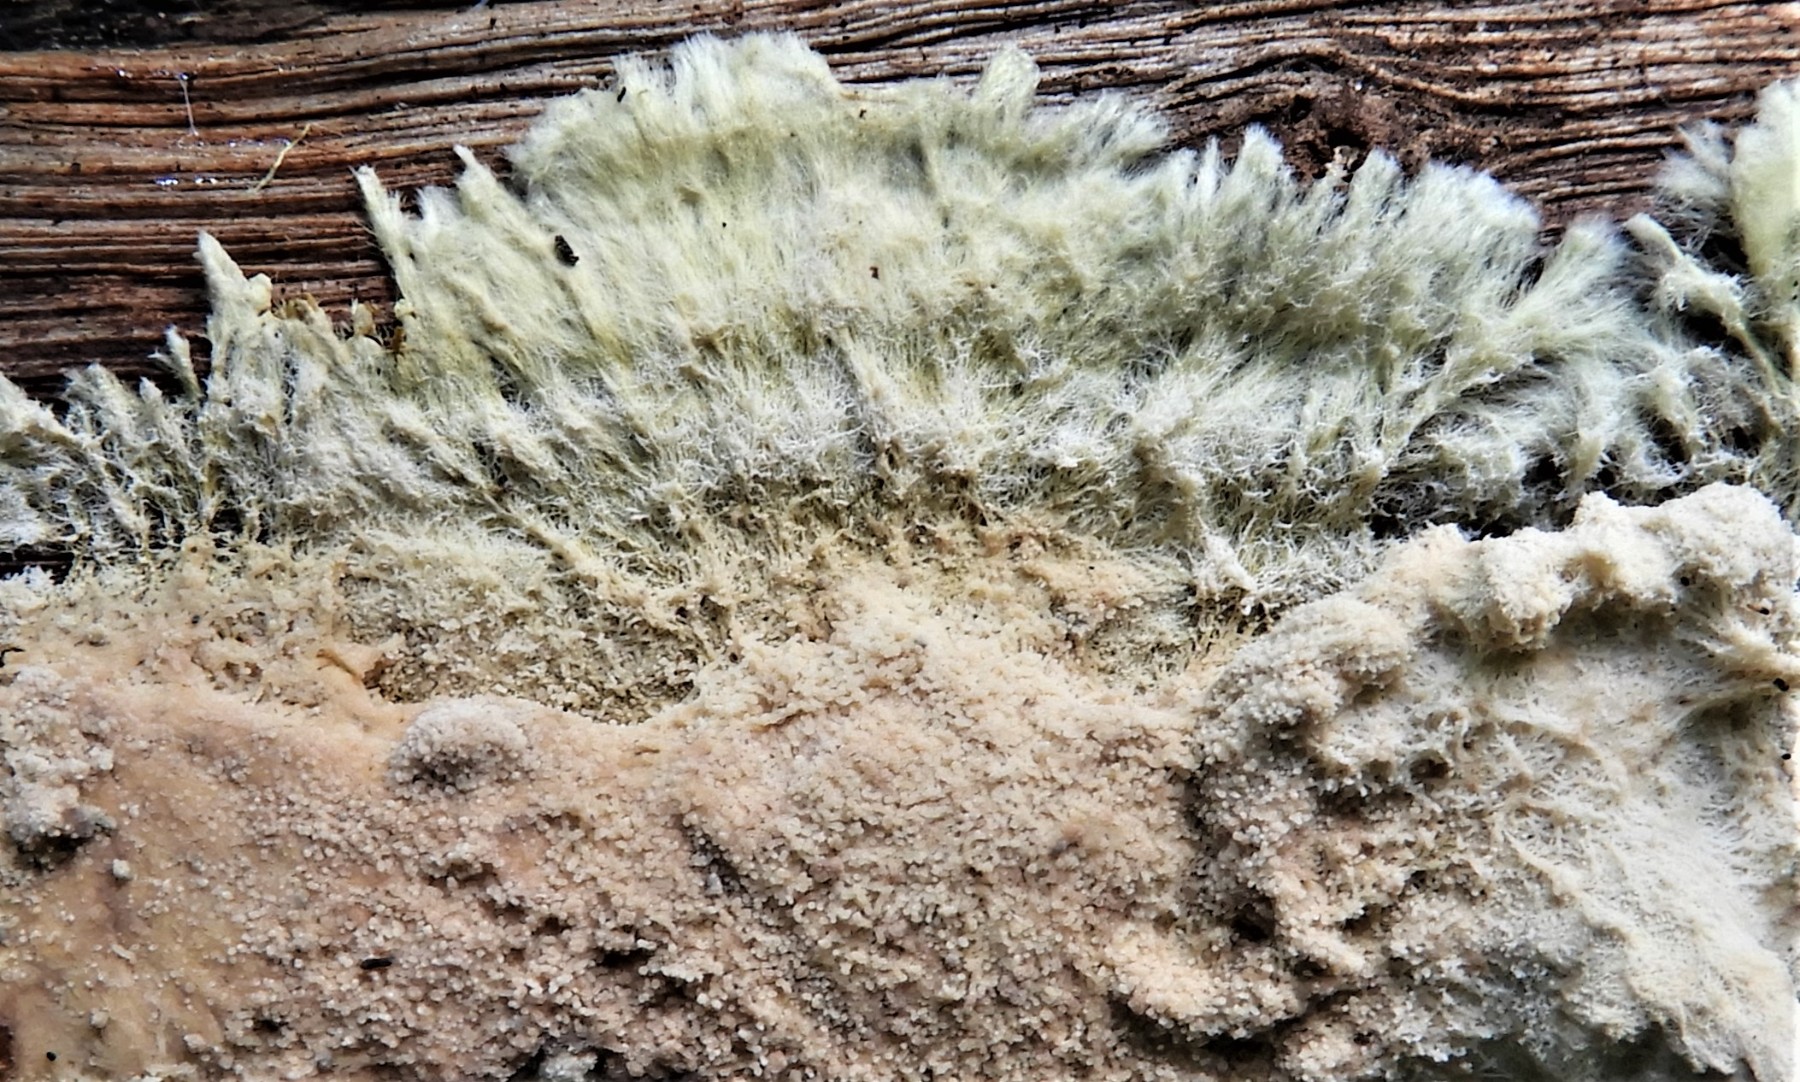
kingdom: Fungi
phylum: Basidiomycota
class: Agaricomycetes
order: Russulales
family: Xenasmataceae
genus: Xenasmatella
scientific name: Xenasmatella vaga
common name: svovl-strenghinde
